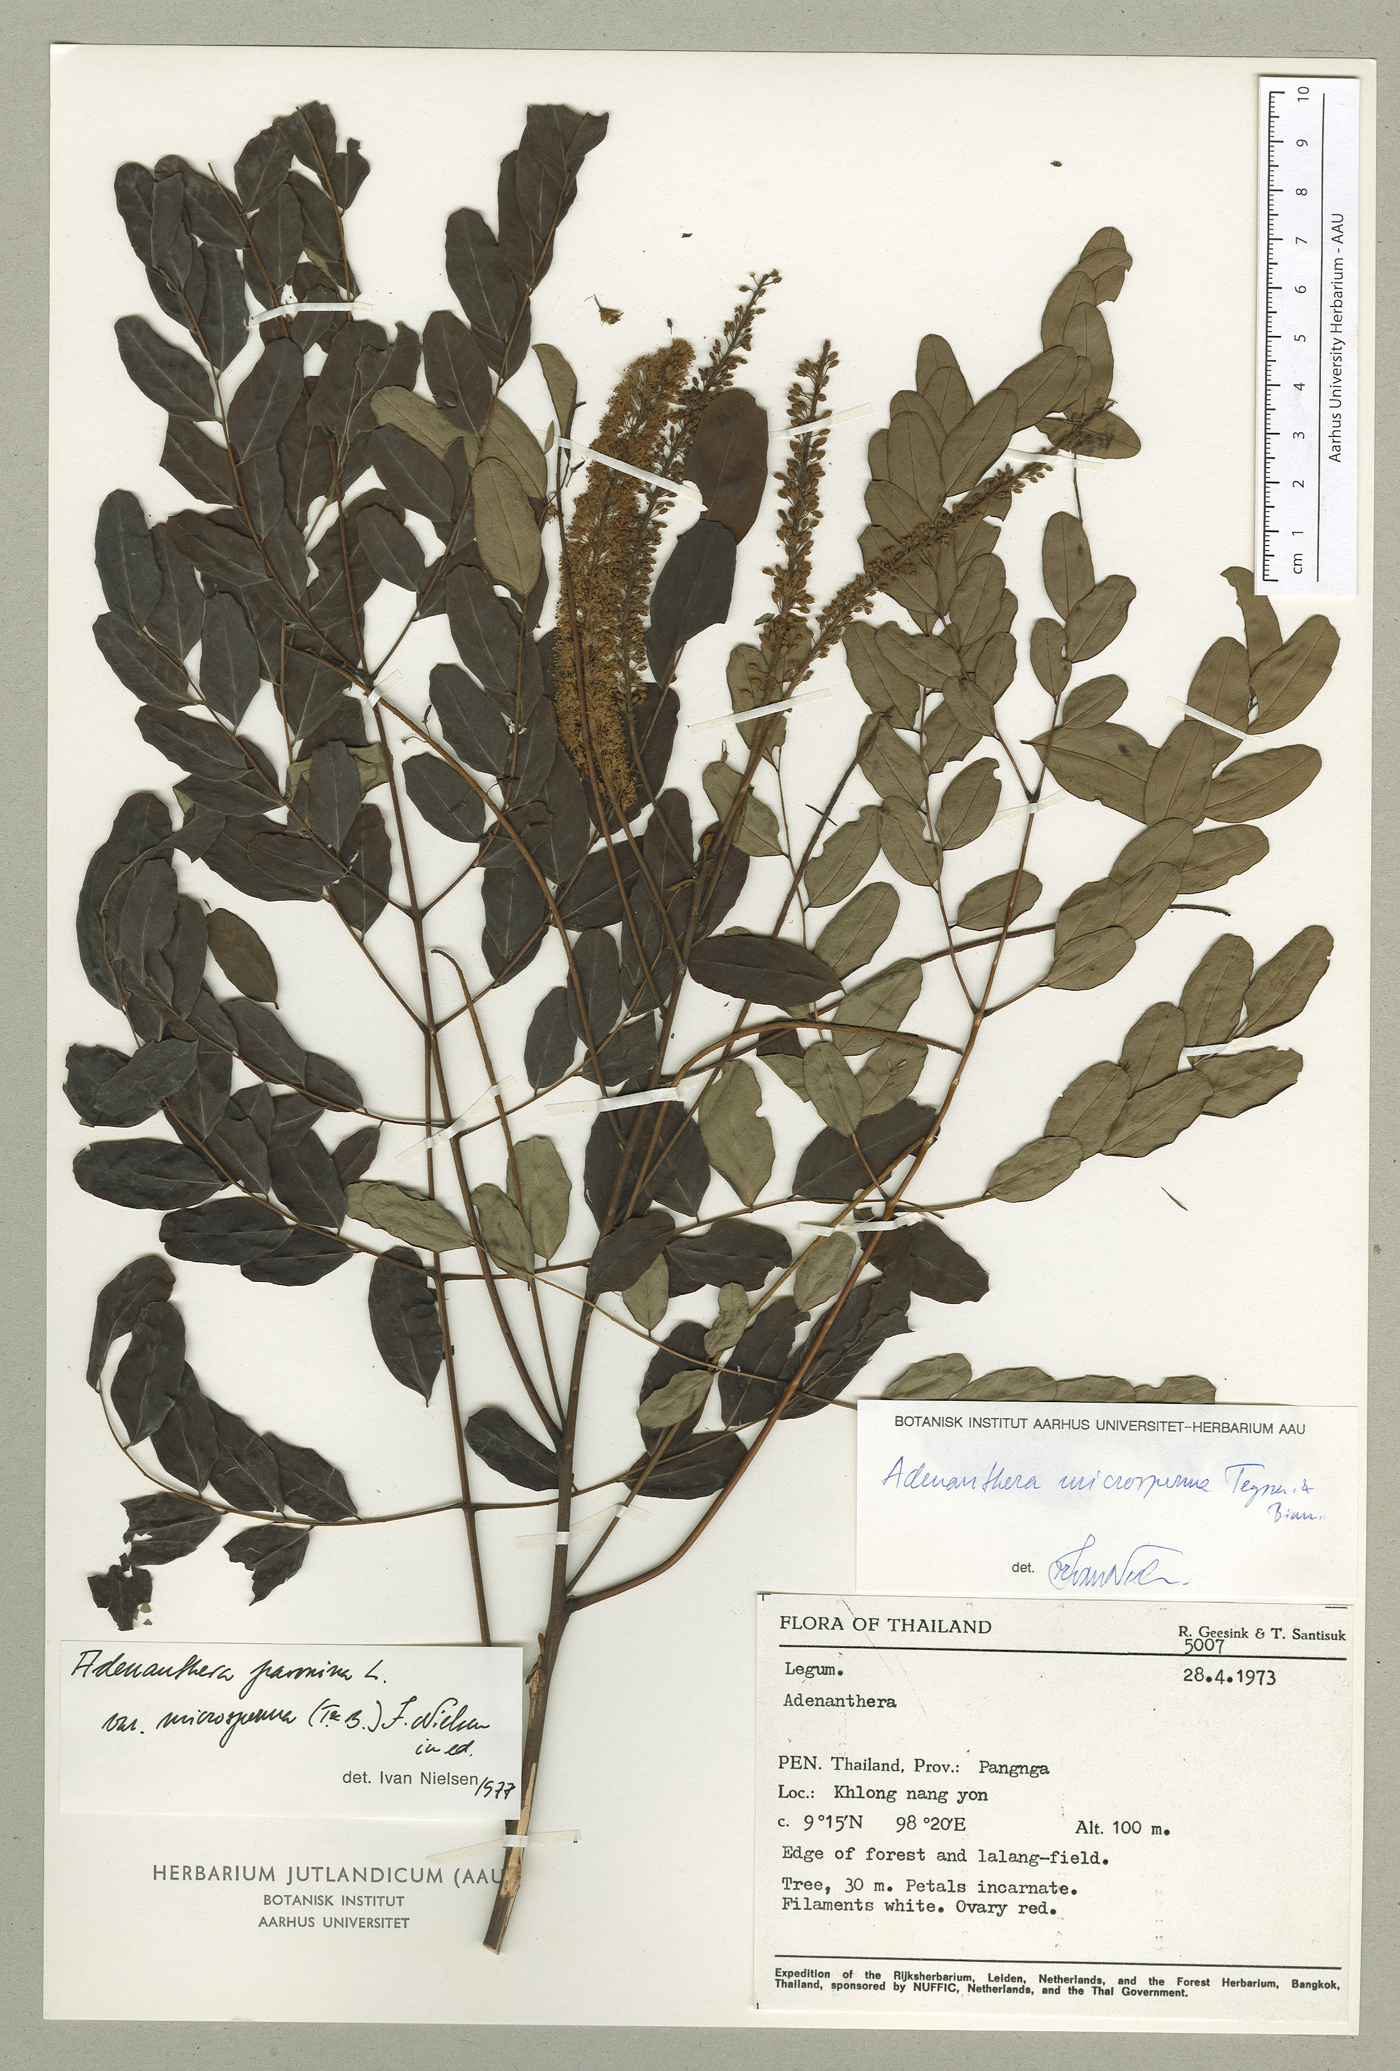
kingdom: Plantae
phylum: Tracheophyta
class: Magnoliopsida
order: Fabales
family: Fabaceae
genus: Adenanthera
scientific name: Adenanthera microsperma
